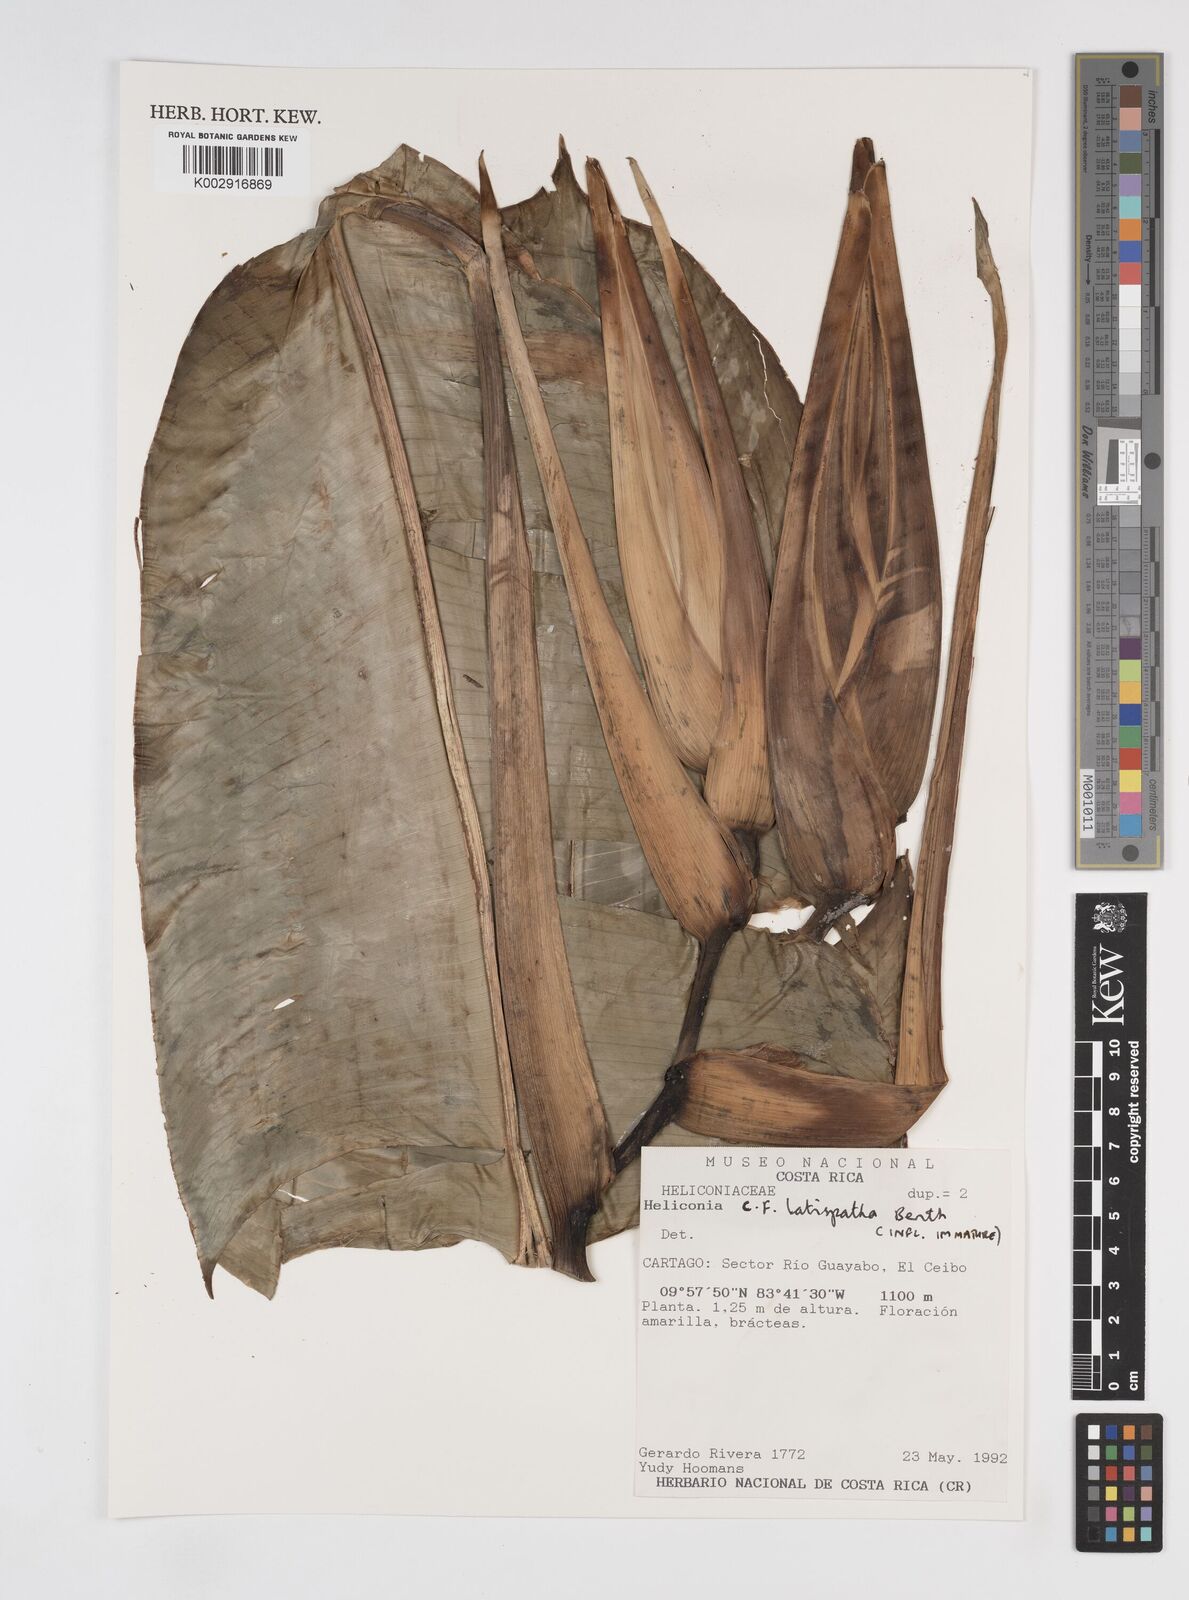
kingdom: Plantae
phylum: Tracheophyta
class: Liliopsida
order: Zingiberales
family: Heliconiaceae
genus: Heliconia
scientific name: Heliconia latispatha
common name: Expanded lobsterclaw
